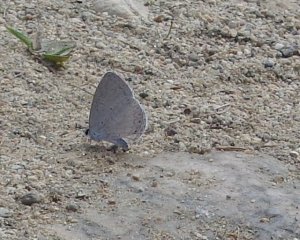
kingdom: Animalia
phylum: Arthropoda
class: Insecta
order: Lepidoptera
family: Lycaenidae
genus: Cyaniris
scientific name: Cyaniris neglecta
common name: Summer Azure
